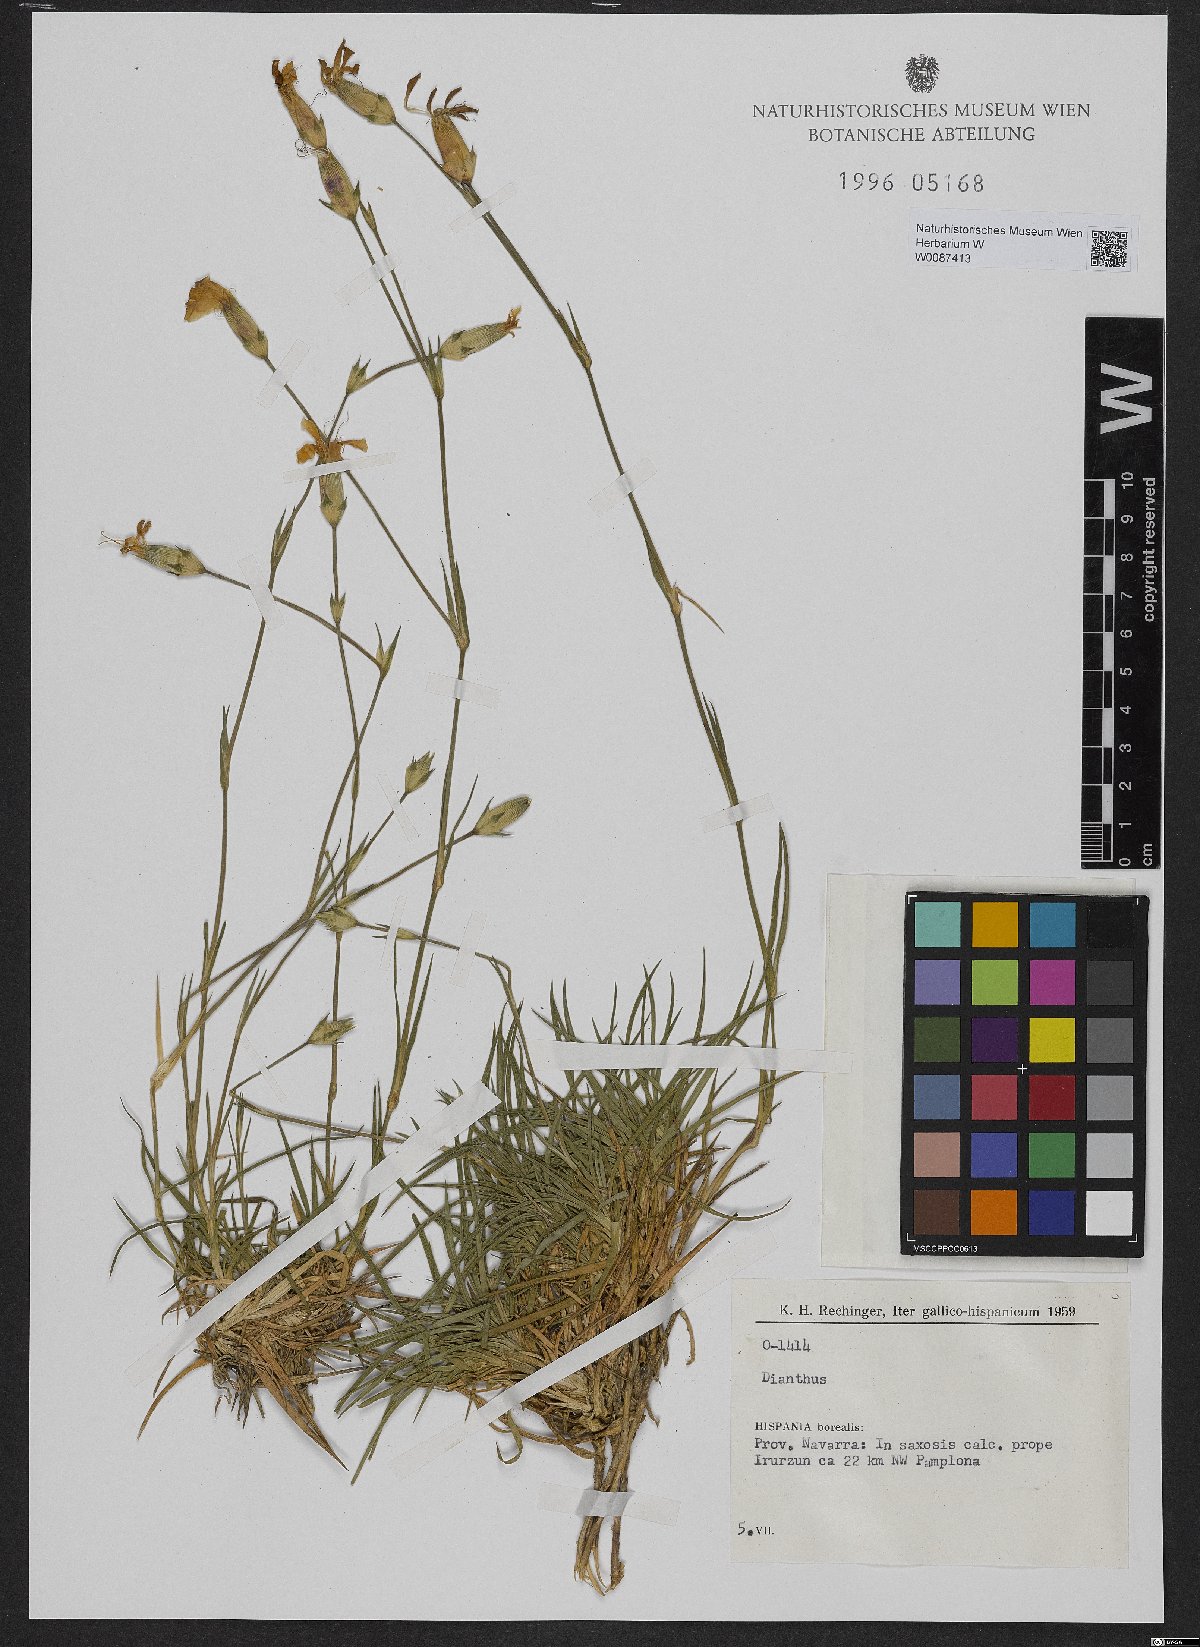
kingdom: Plantae
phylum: Tracheophyta
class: Magnoliopsida
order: Caryophyllales
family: Caryophyllaceae
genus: Dianthus
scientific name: Dianthus
